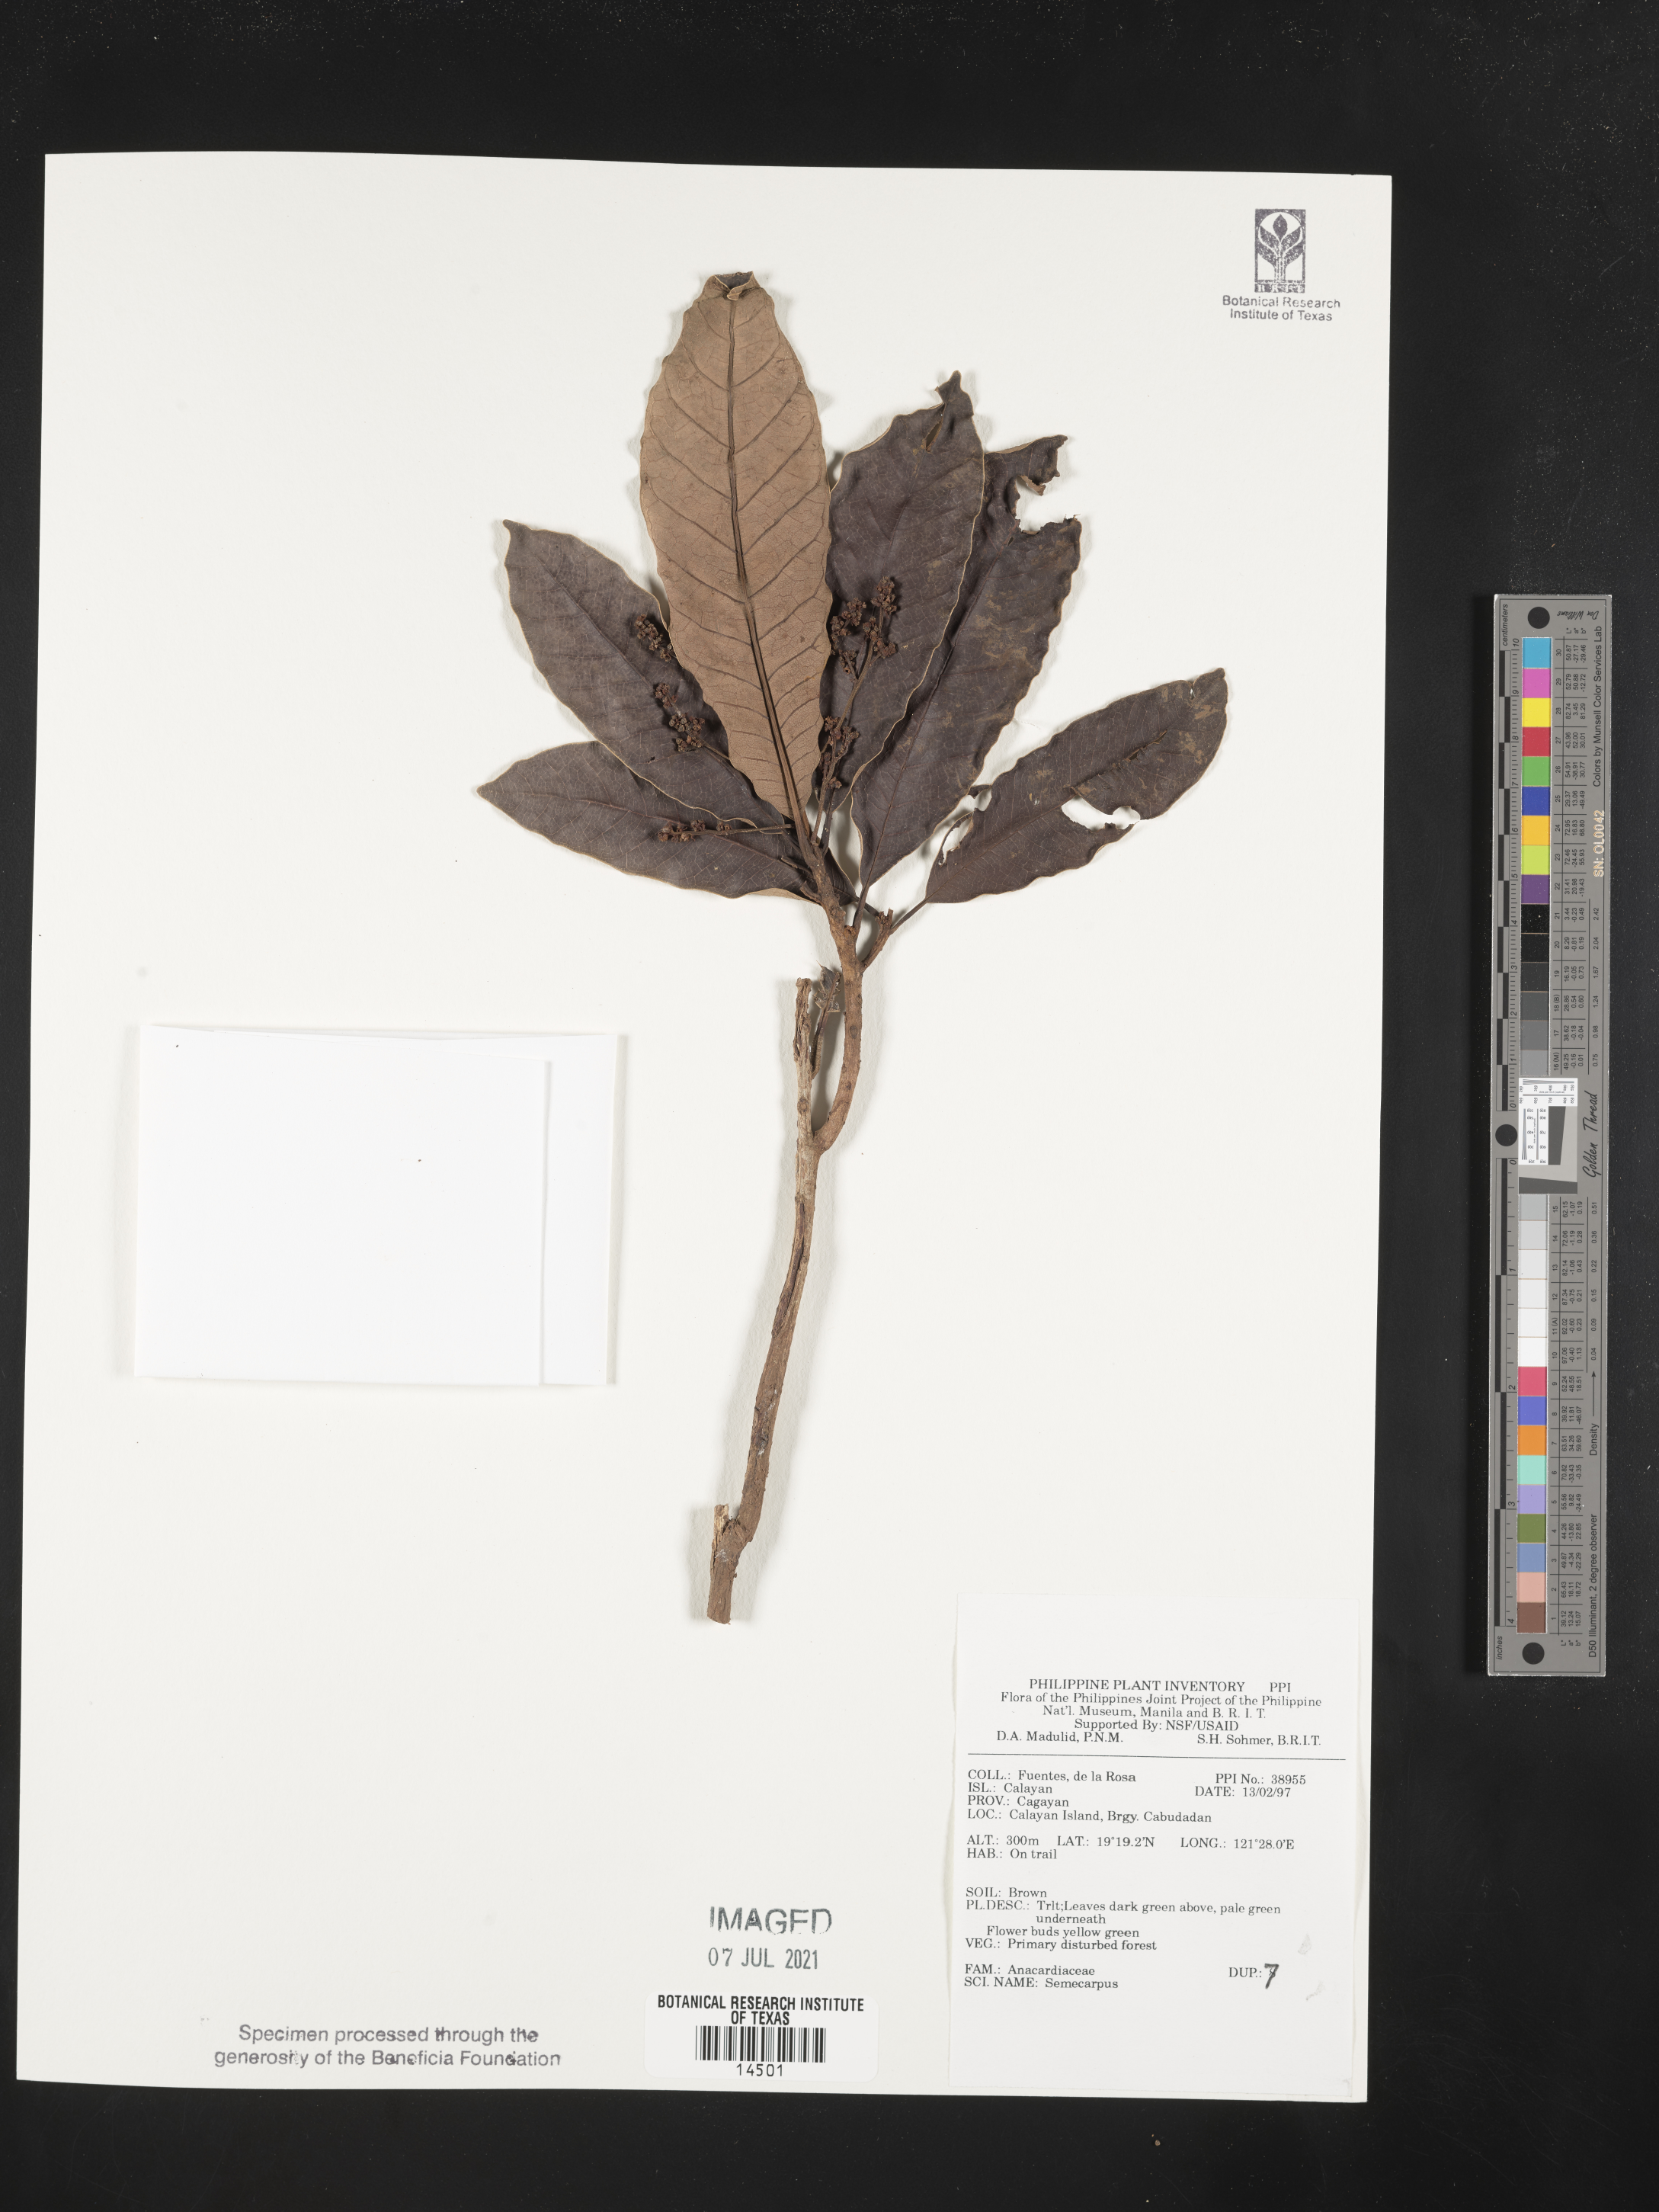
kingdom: Plantae
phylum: Tracheophyta
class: Magnoliopsida
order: Sapindales
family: Anacardiaceae
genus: Semecarpus
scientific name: Semecarpus
